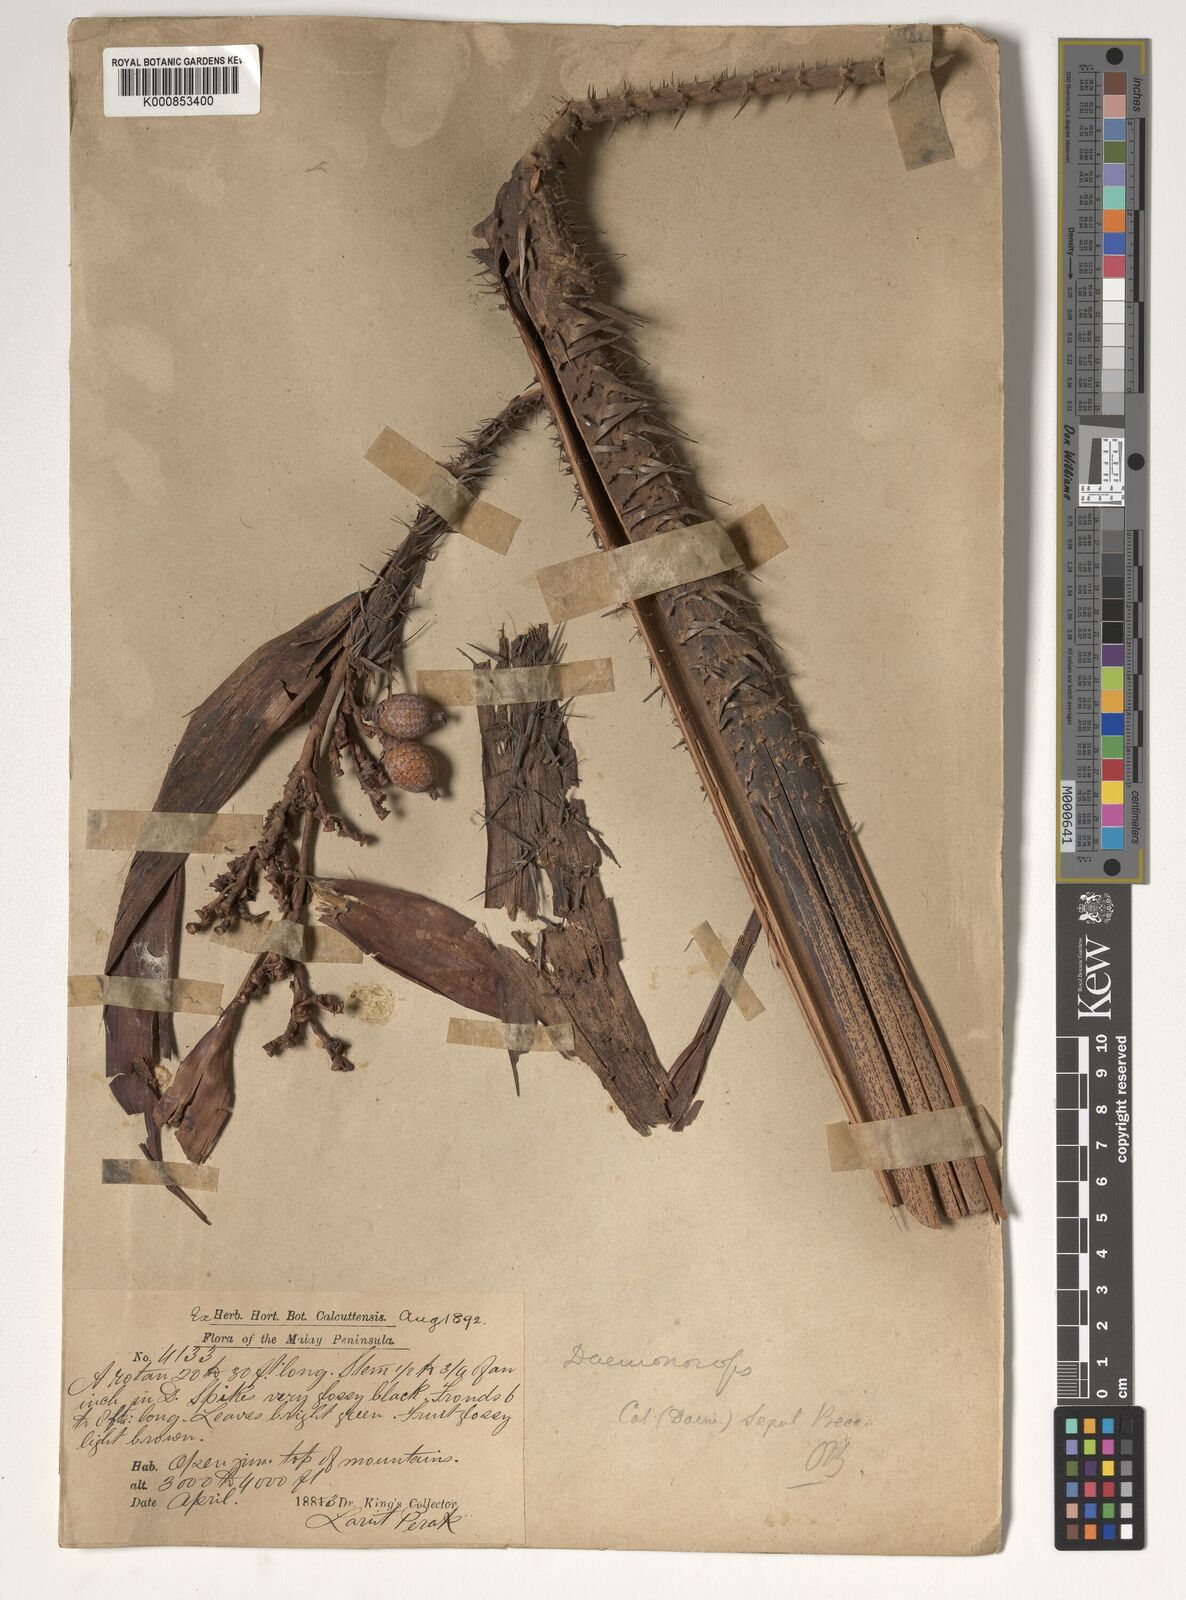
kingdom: Plantae
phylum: Tracheophyta
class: Liliopsida
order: Arecales
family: Arecaceae
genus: Calamus
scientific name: Calamus melanochaetes
